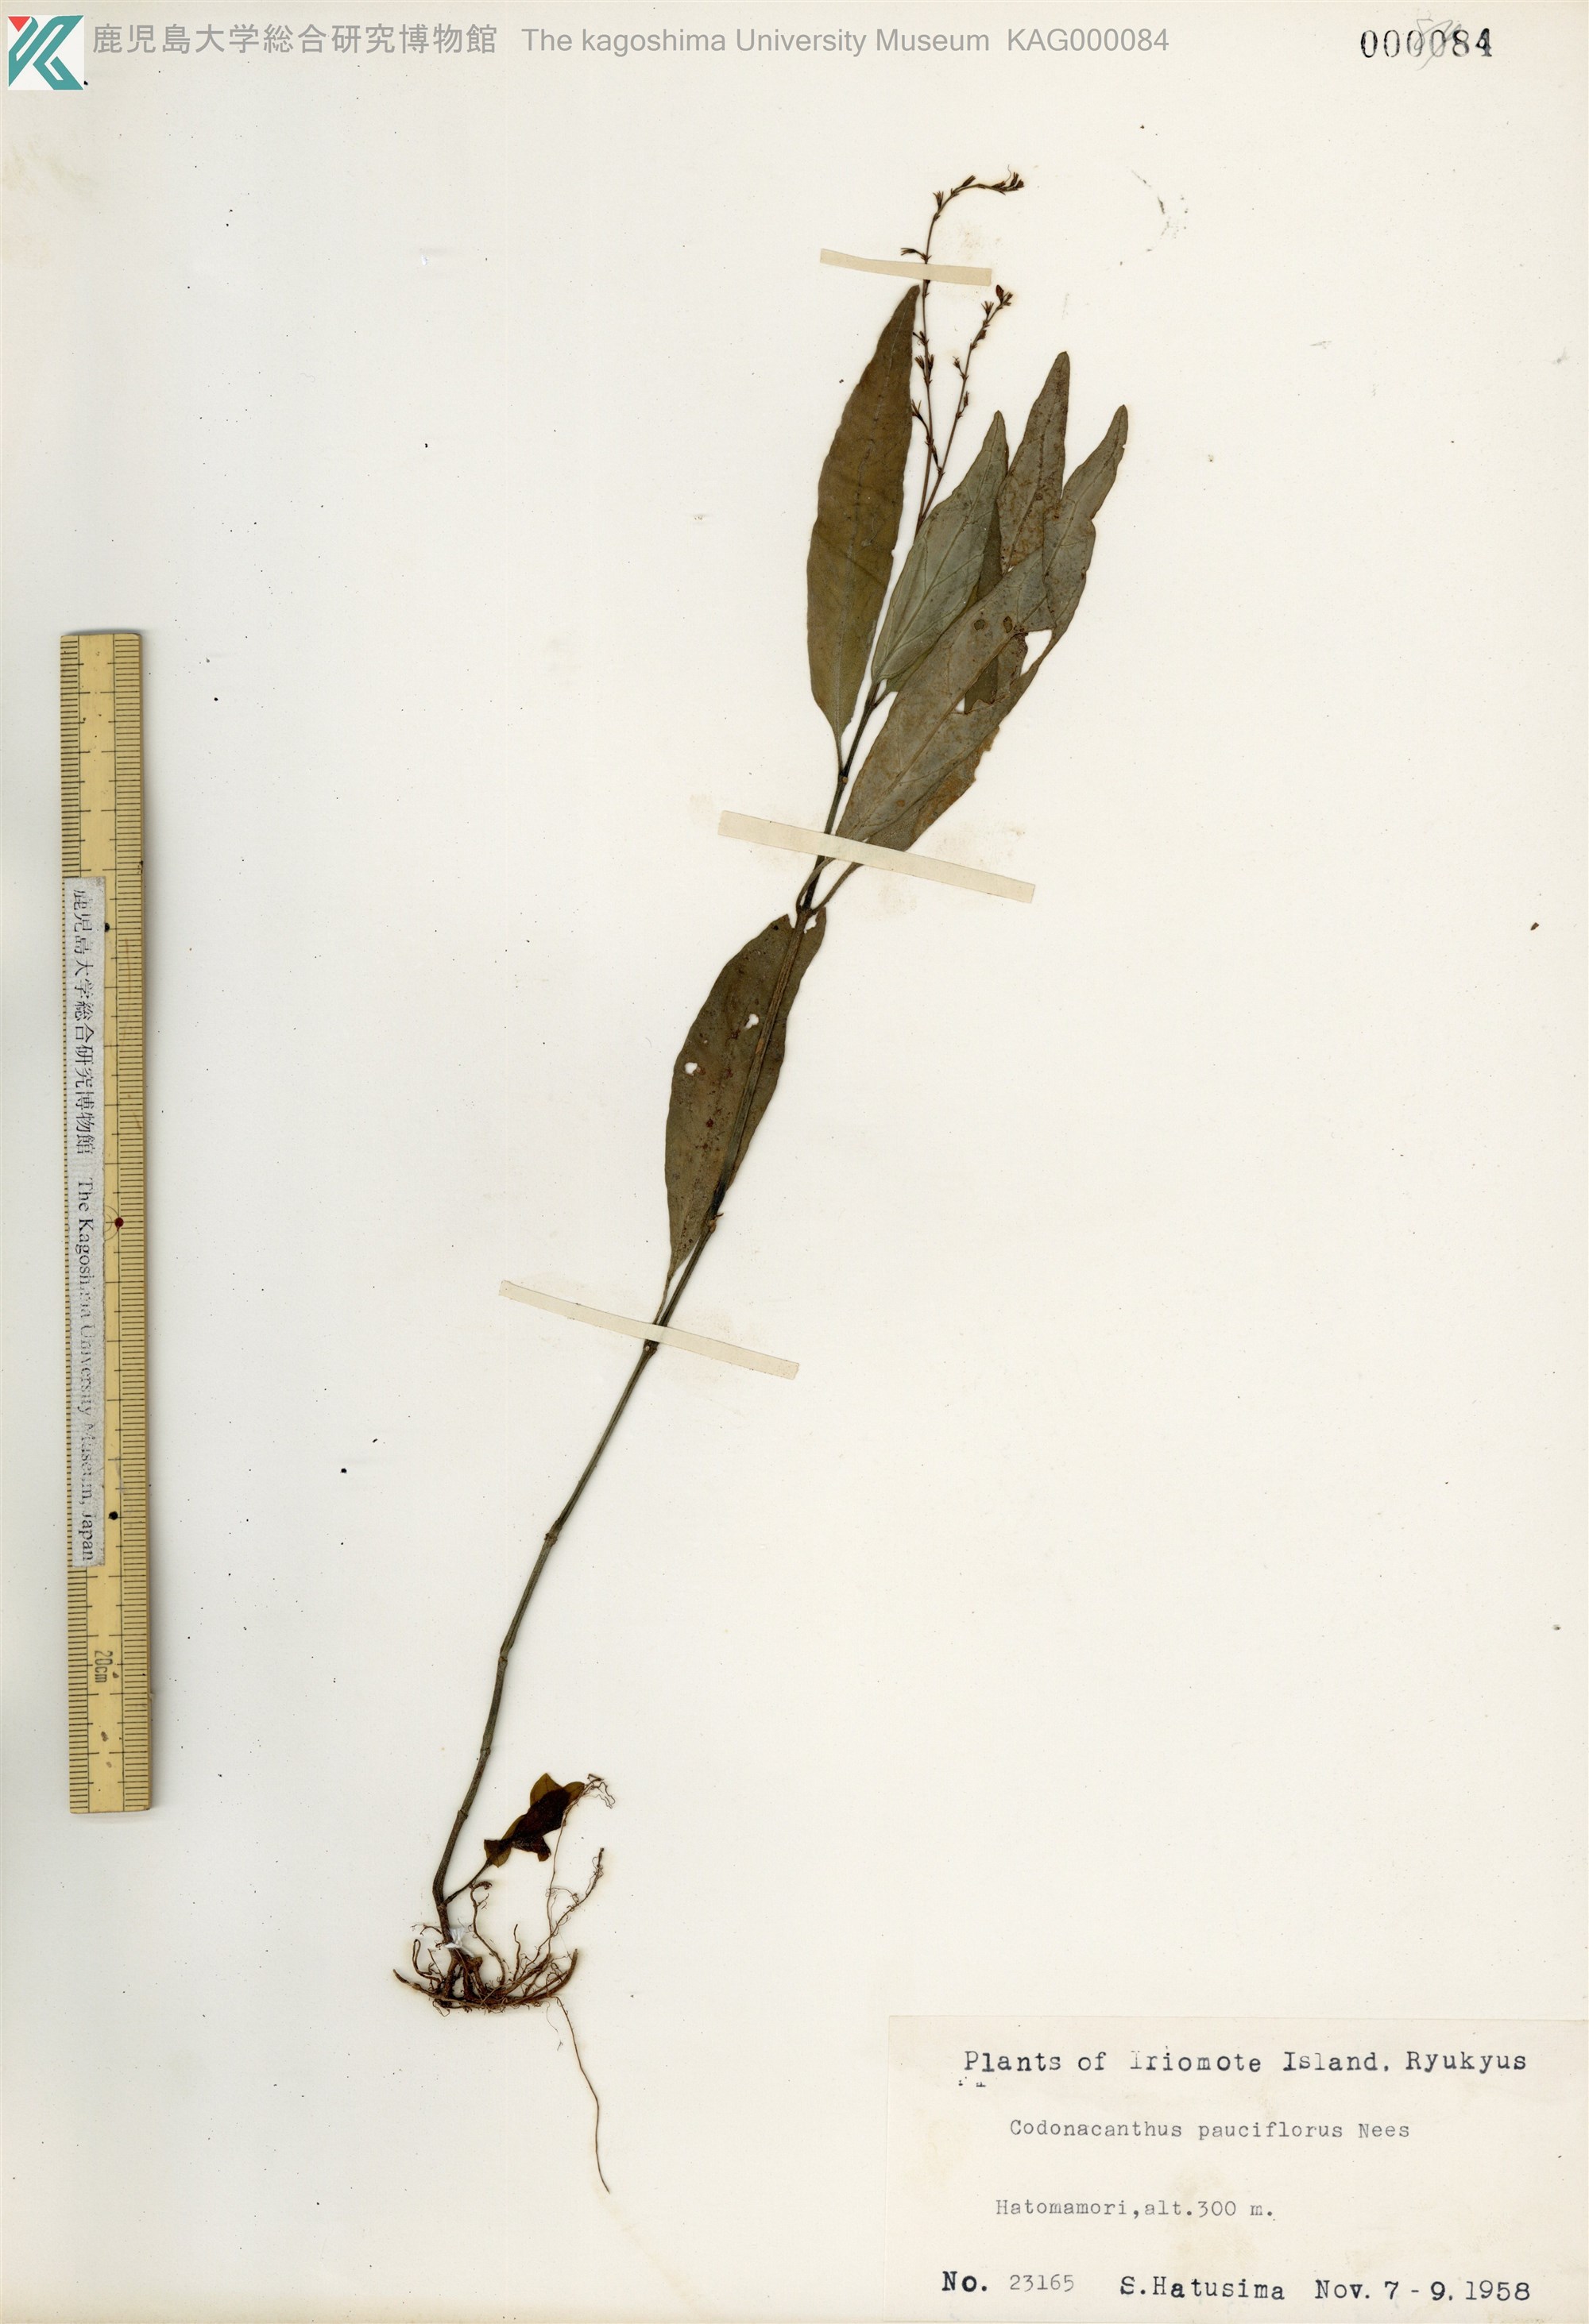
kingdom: Plantae
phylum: Tracheophyta
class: Magnoliopsida
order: Lamiales
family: Acanthaceae
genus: Codonacanthus
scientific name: Codonacanthus pauciflorus
